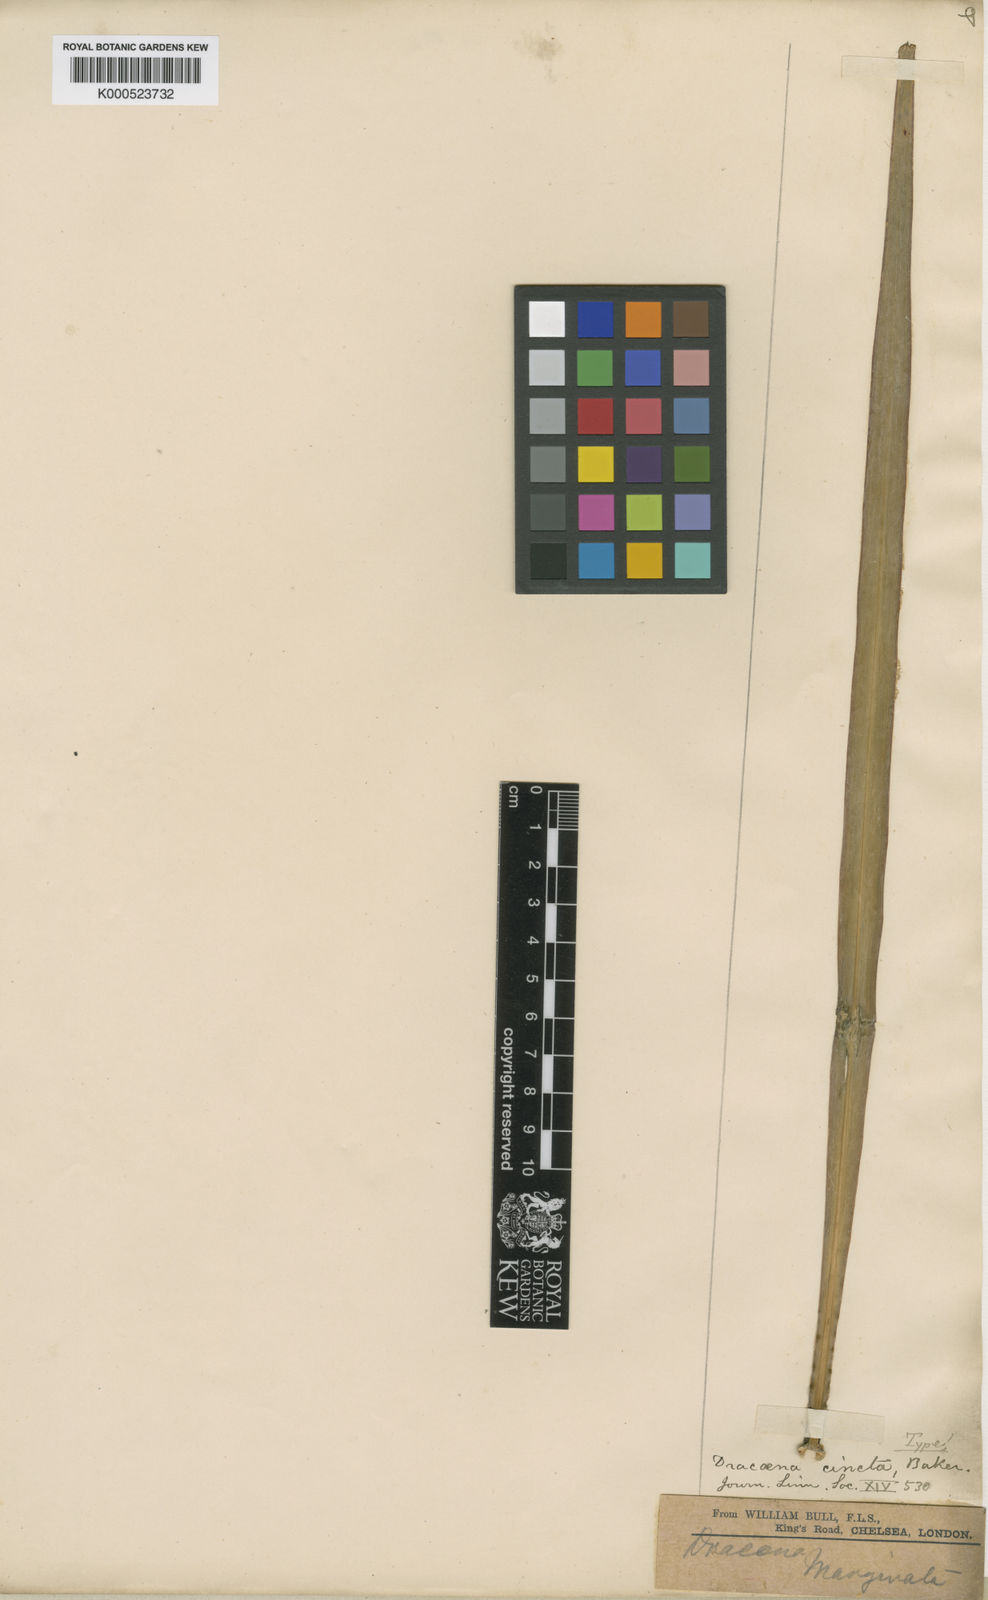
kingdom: Plantae
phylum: Tracheophyta
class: Liliopsida
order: Asparagales
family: Asparagaceae
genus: Dracaena
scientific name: Dracaena cincta
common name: Narrow leaf dragon palm
